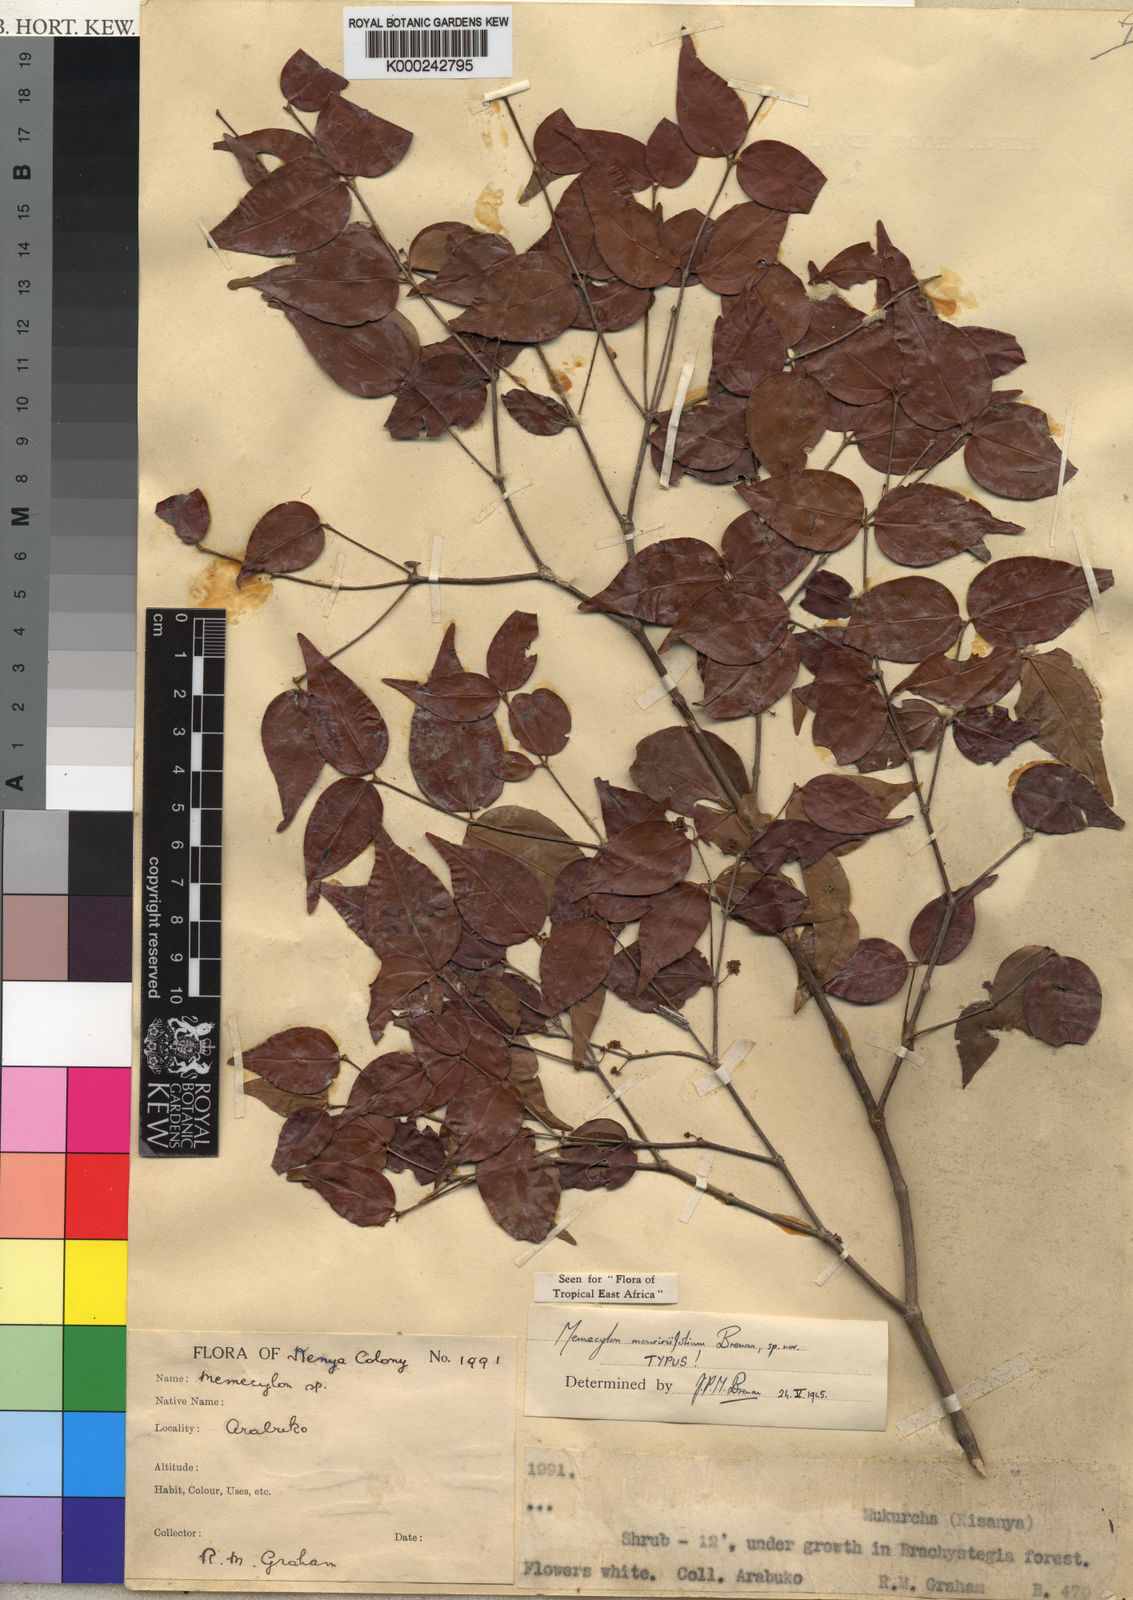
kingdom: Plantae
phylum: Tracheophyta
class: Magnoliopsida
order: Myrtales
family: Melastomataceae
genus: Warneckea
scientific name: Warneckea mouririfolia
